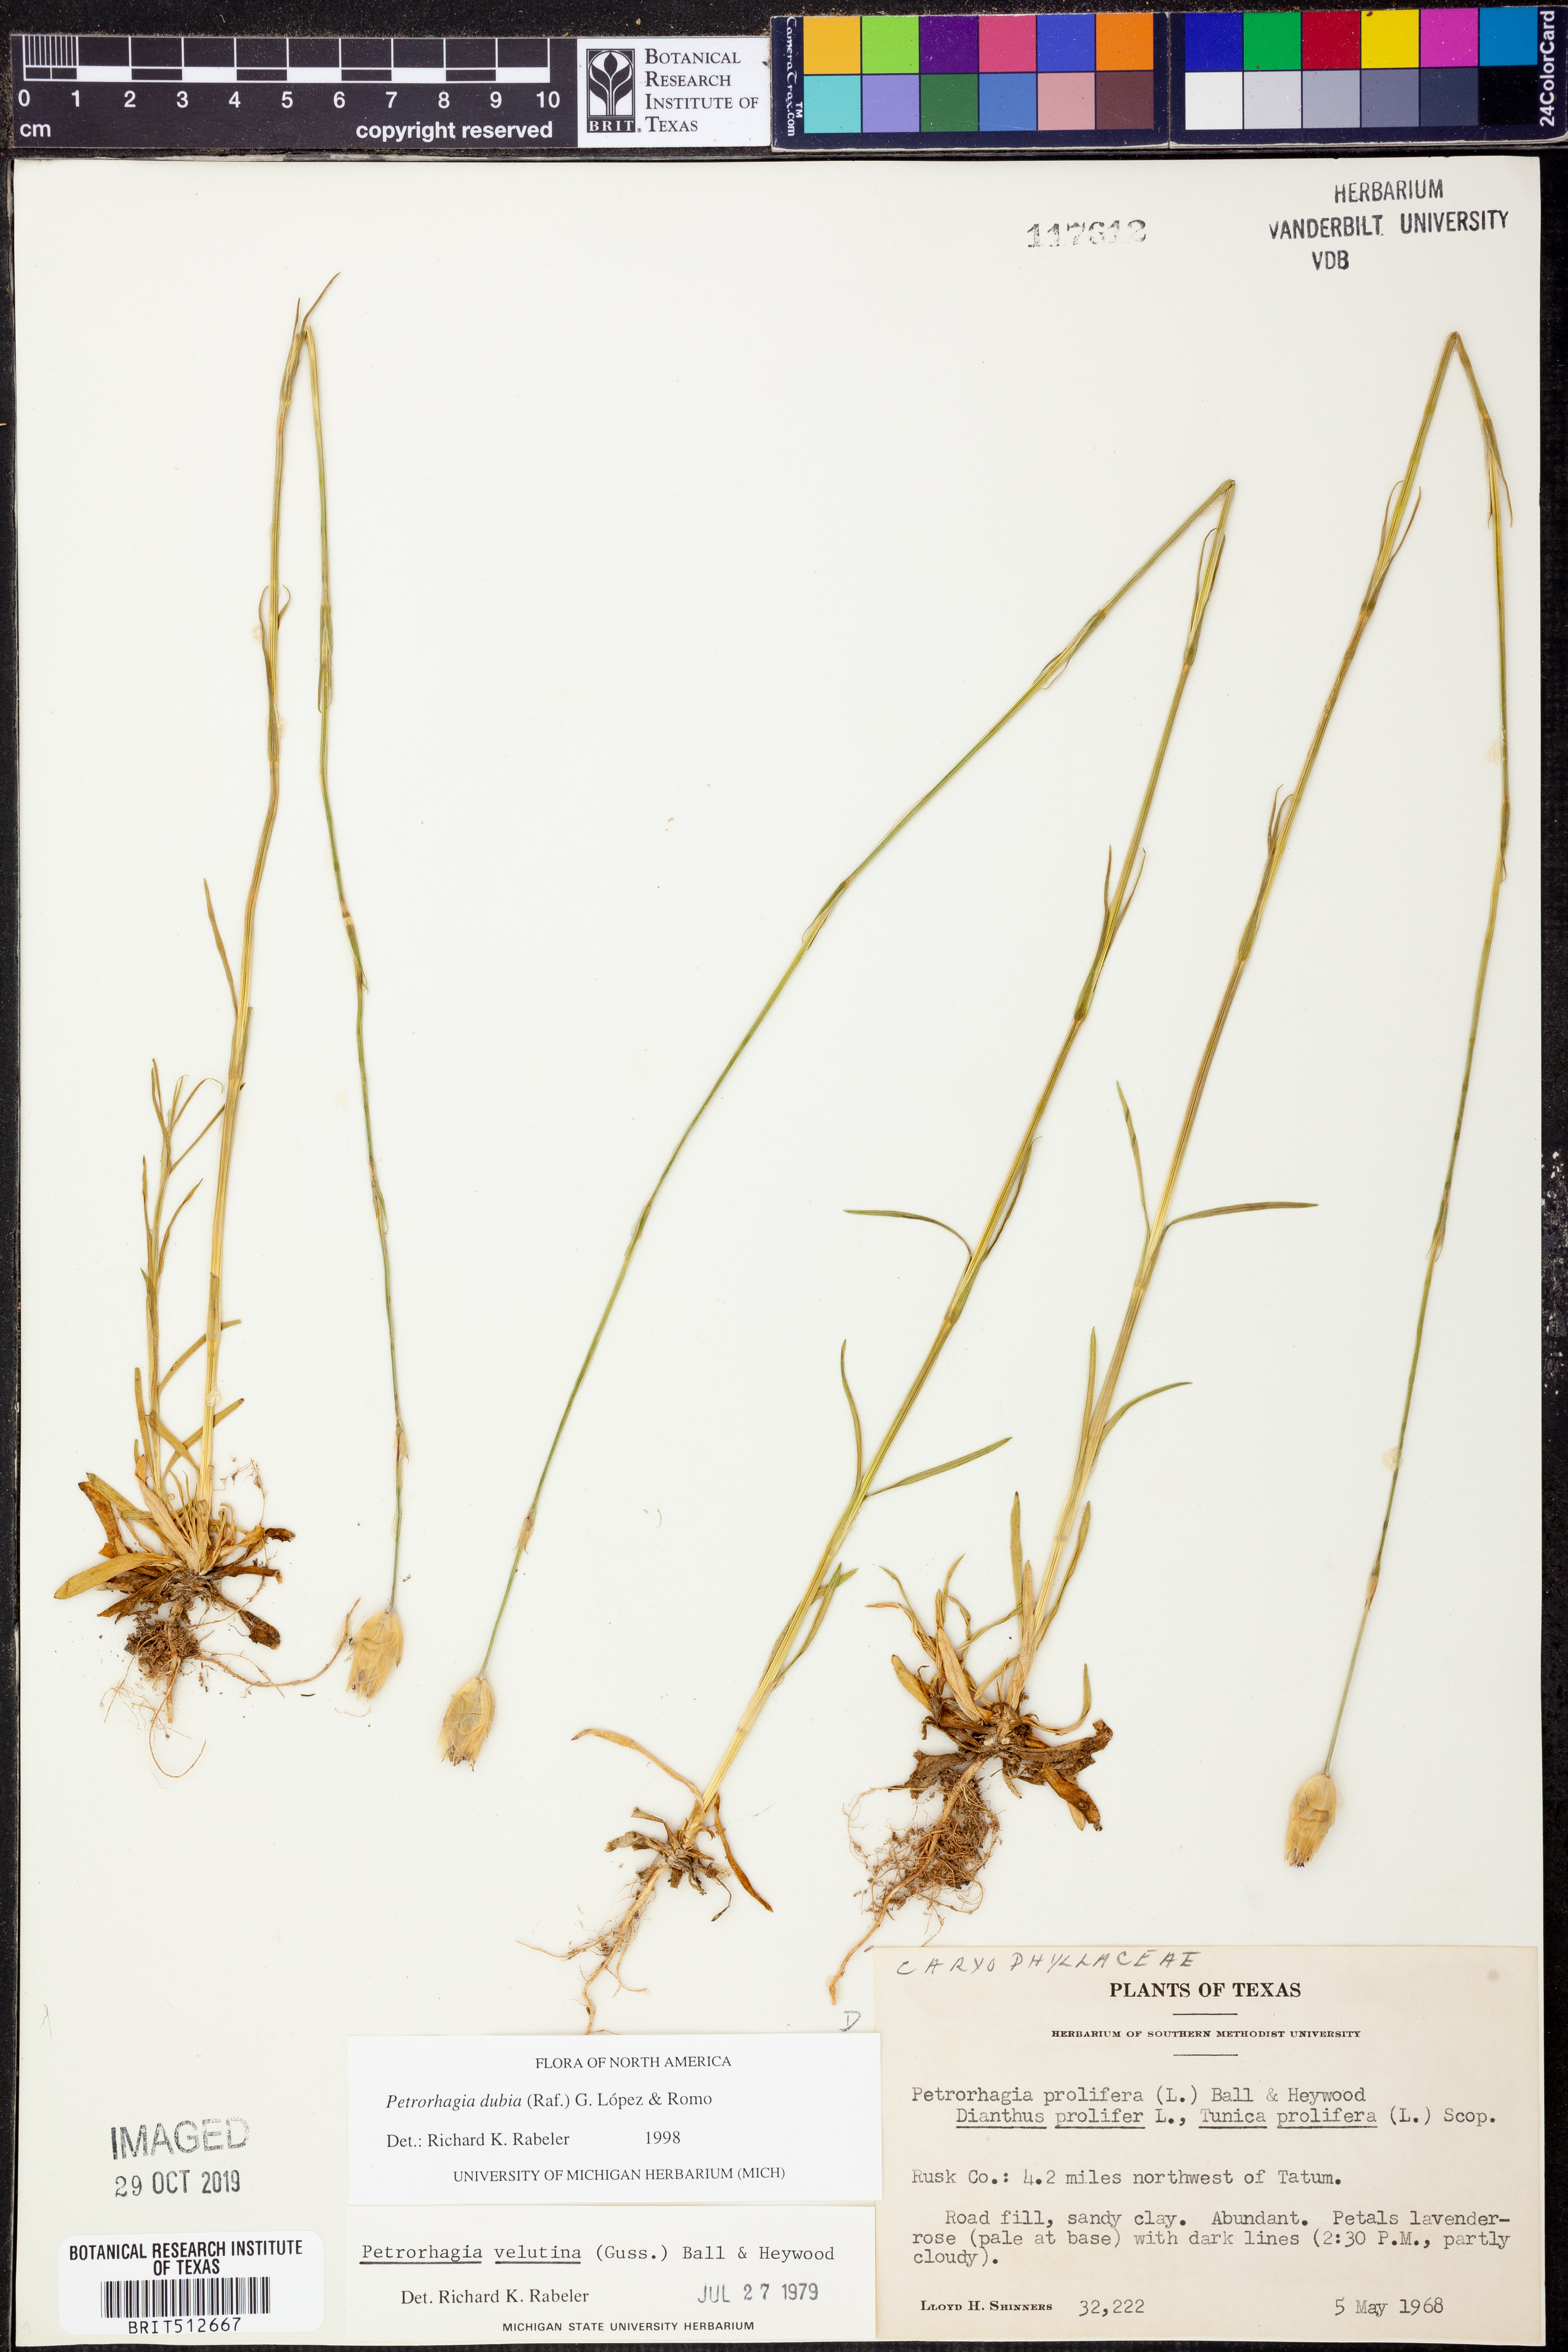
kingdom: Plantae
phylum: Tracheophyta
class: Magnoliopsida
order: Caryophyllales
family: Caryophyllaceae
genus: Petrorhagia
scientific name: Petrorhagia dubia
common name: Hairypink
